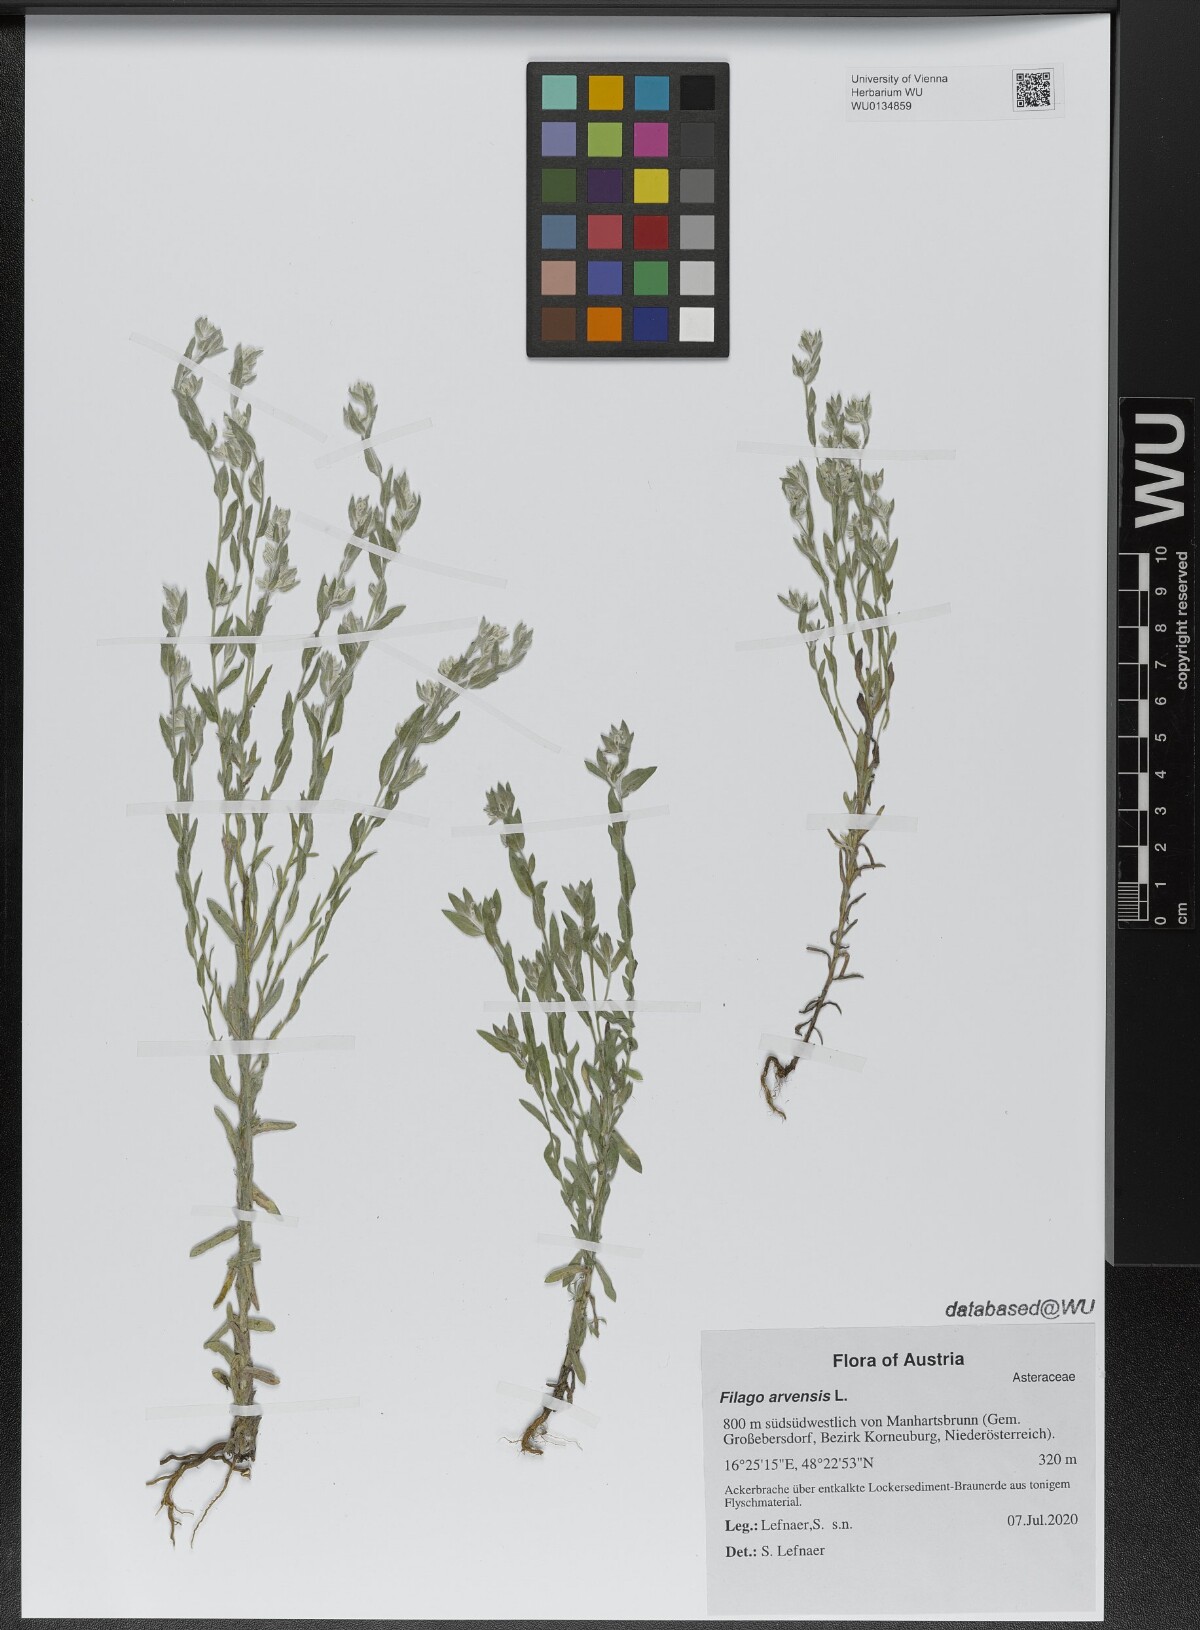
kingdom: Plantae
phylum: Tracheophyta
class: Magnoliopsida
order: Asterales
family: Asteraceae
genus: Filago
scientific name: Filago arvensis
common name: Field cudweed
